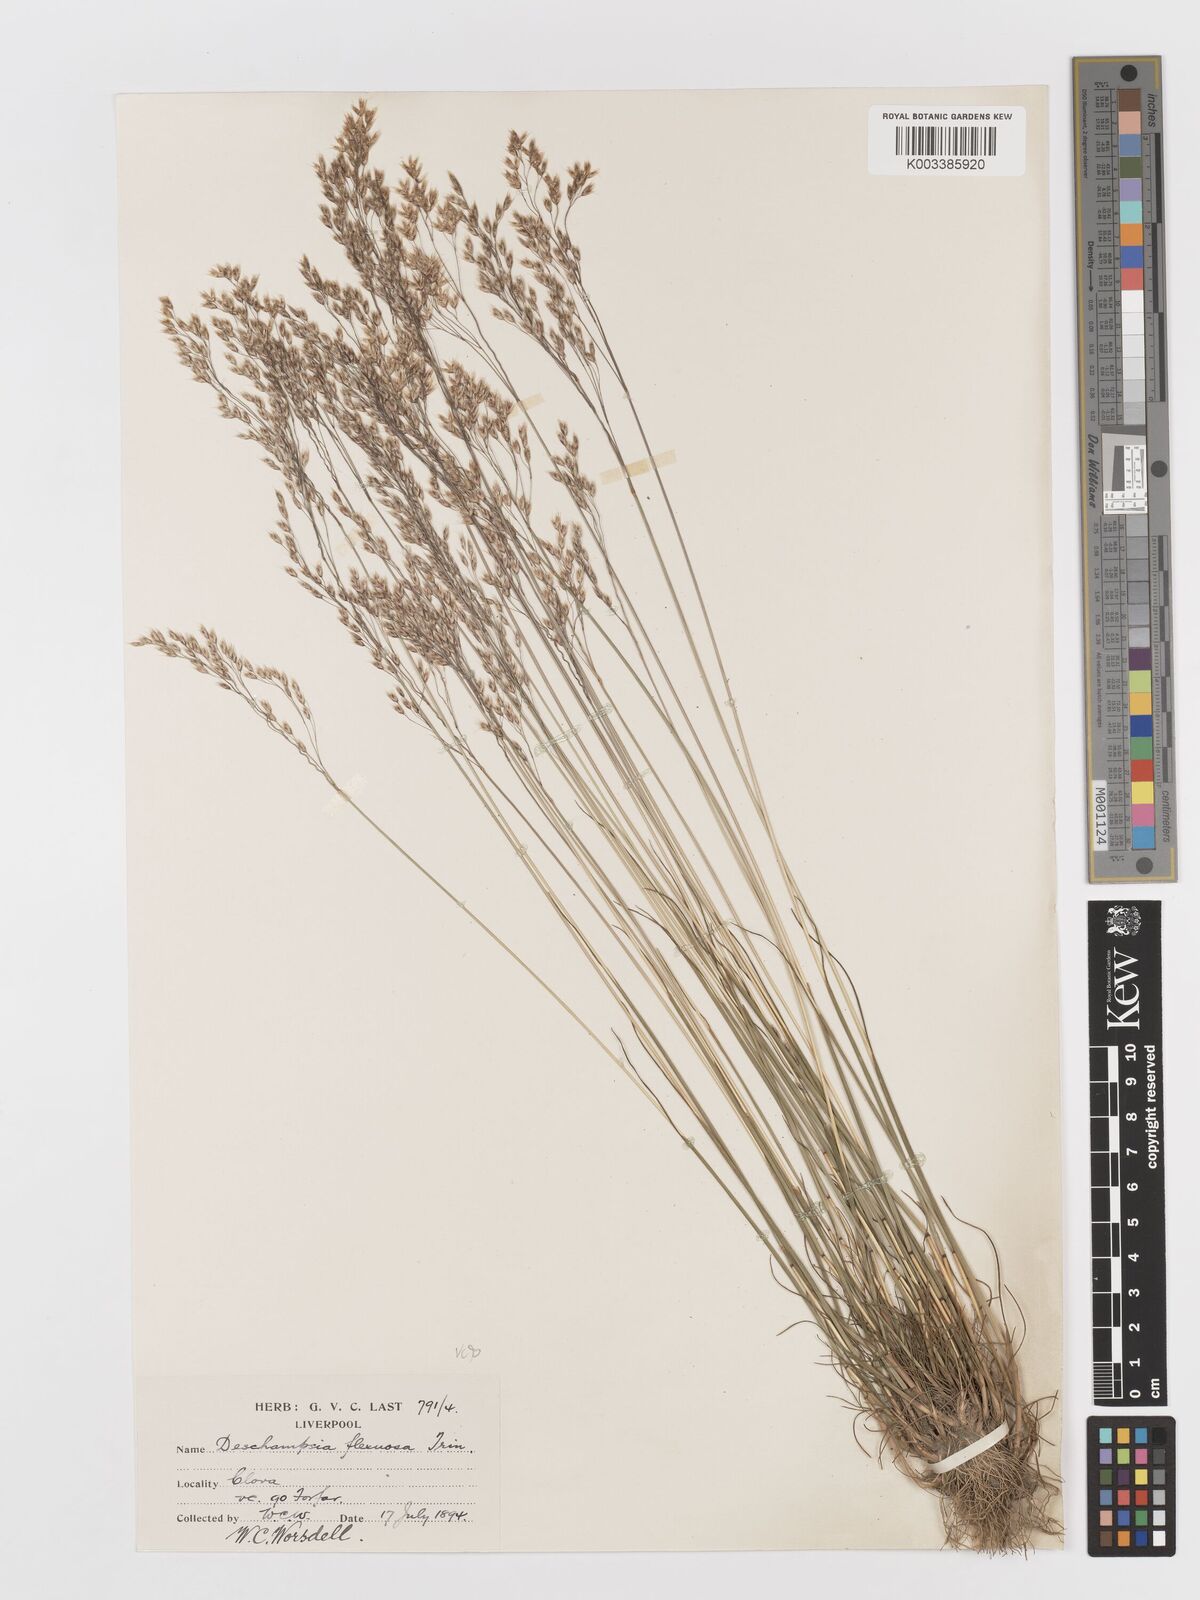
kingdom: Plantae
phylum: Tracheophyta
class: Liliopsida
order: Poales
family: Poaceae
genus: Avenella
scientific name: Avenella flexuosa
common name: Wavy hairgrass
